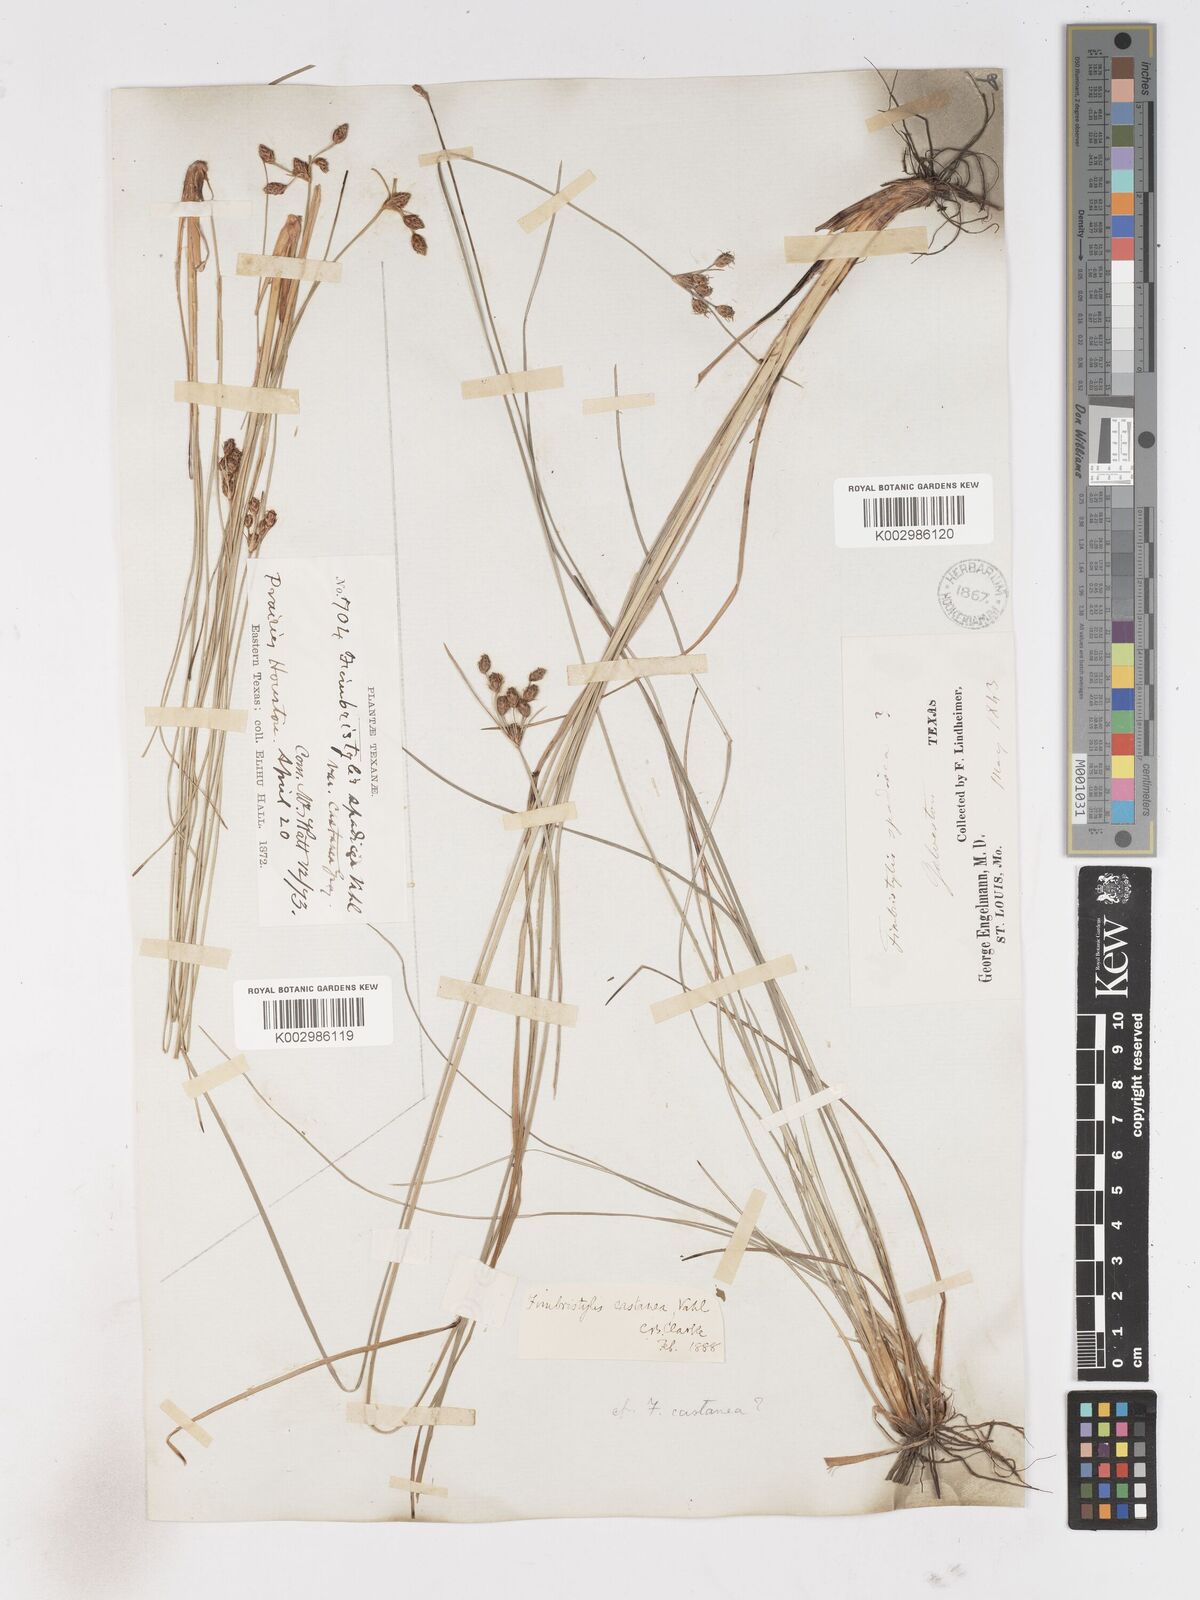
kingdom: Plantae
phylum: Tracheophyta
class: Liliopsida
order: Poales
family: Cyperaceae
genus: Fimbristylis
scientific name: Fimbristylis spadicea
